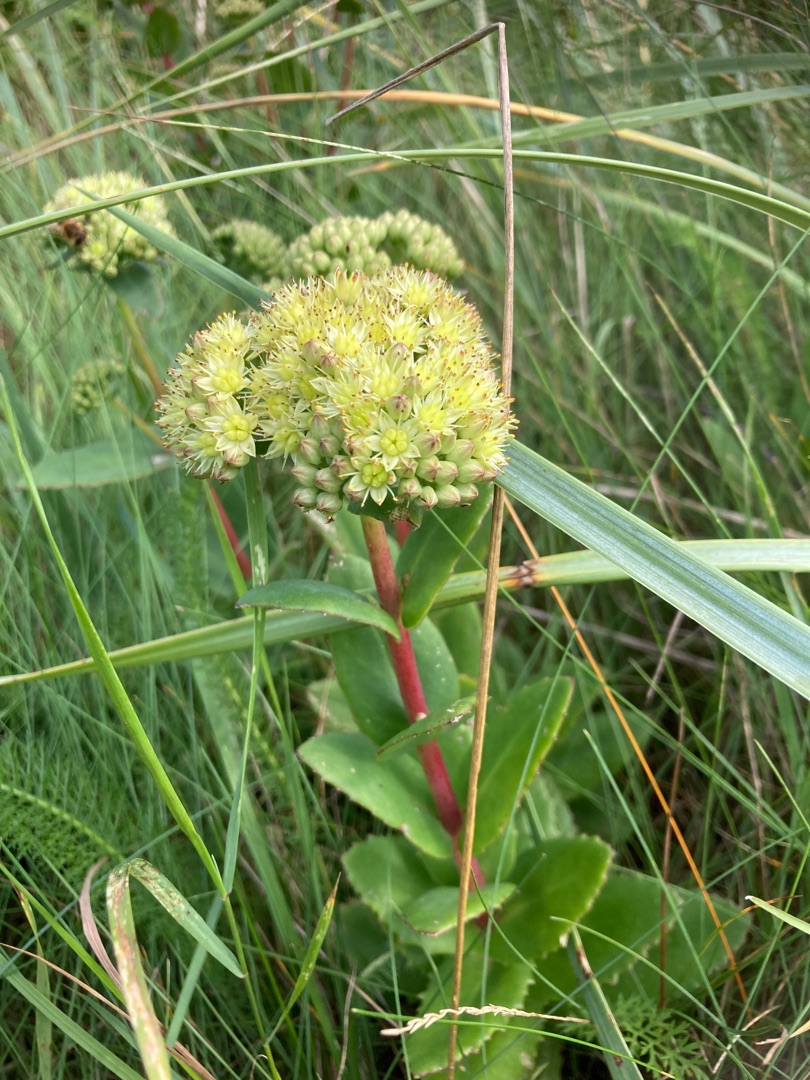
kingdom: Plantae
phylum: Tracheophyta
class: Magnoliopsida
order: Saxifragales
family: Crassulaceae
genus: Hylotelephium
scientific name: Hylotelephium telephium
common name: Sankthansurt
